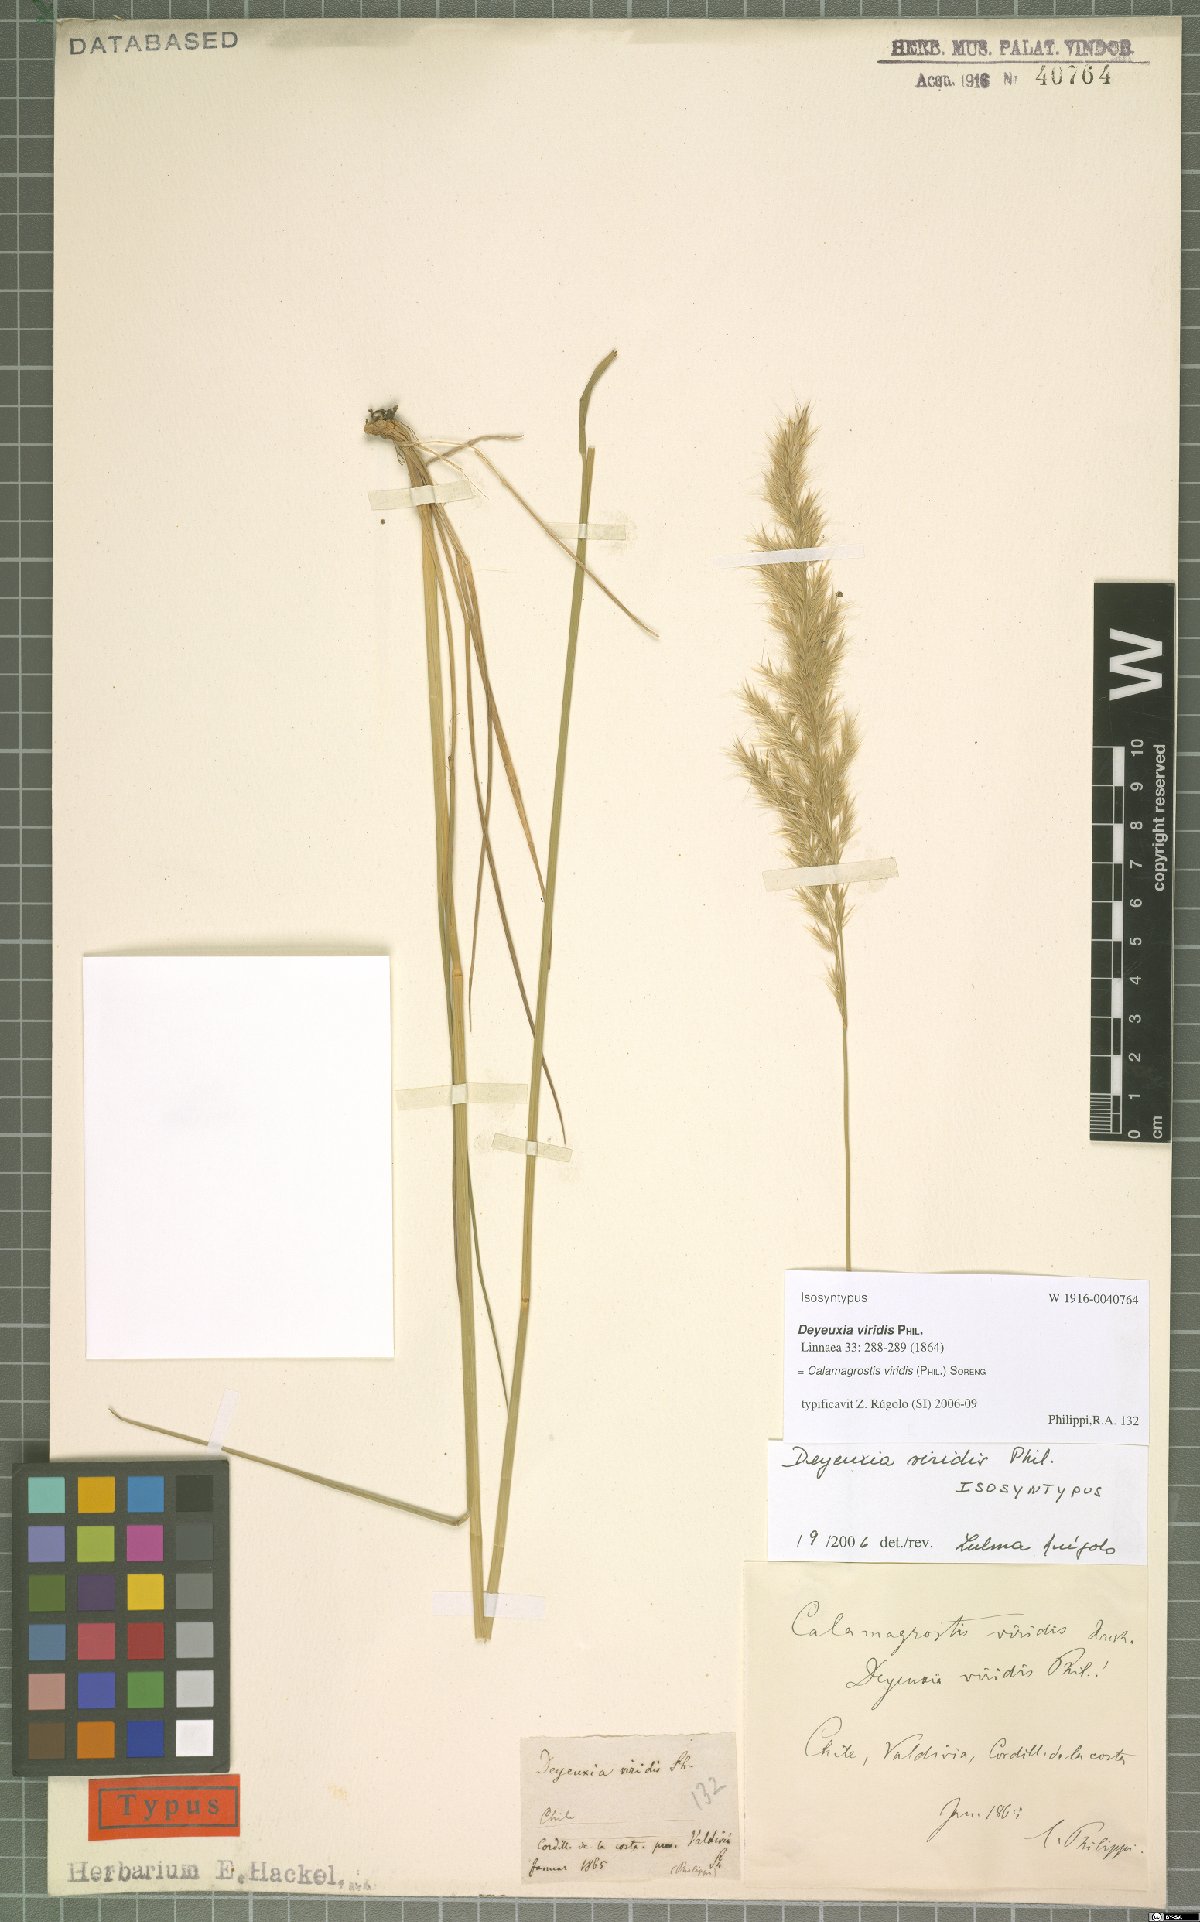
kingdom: Plantae
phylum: Tracheophyta
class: Liliopsida
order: Poales
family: Poaceae
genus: Cinnagrostis
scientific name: Cinnagrostis viridis
